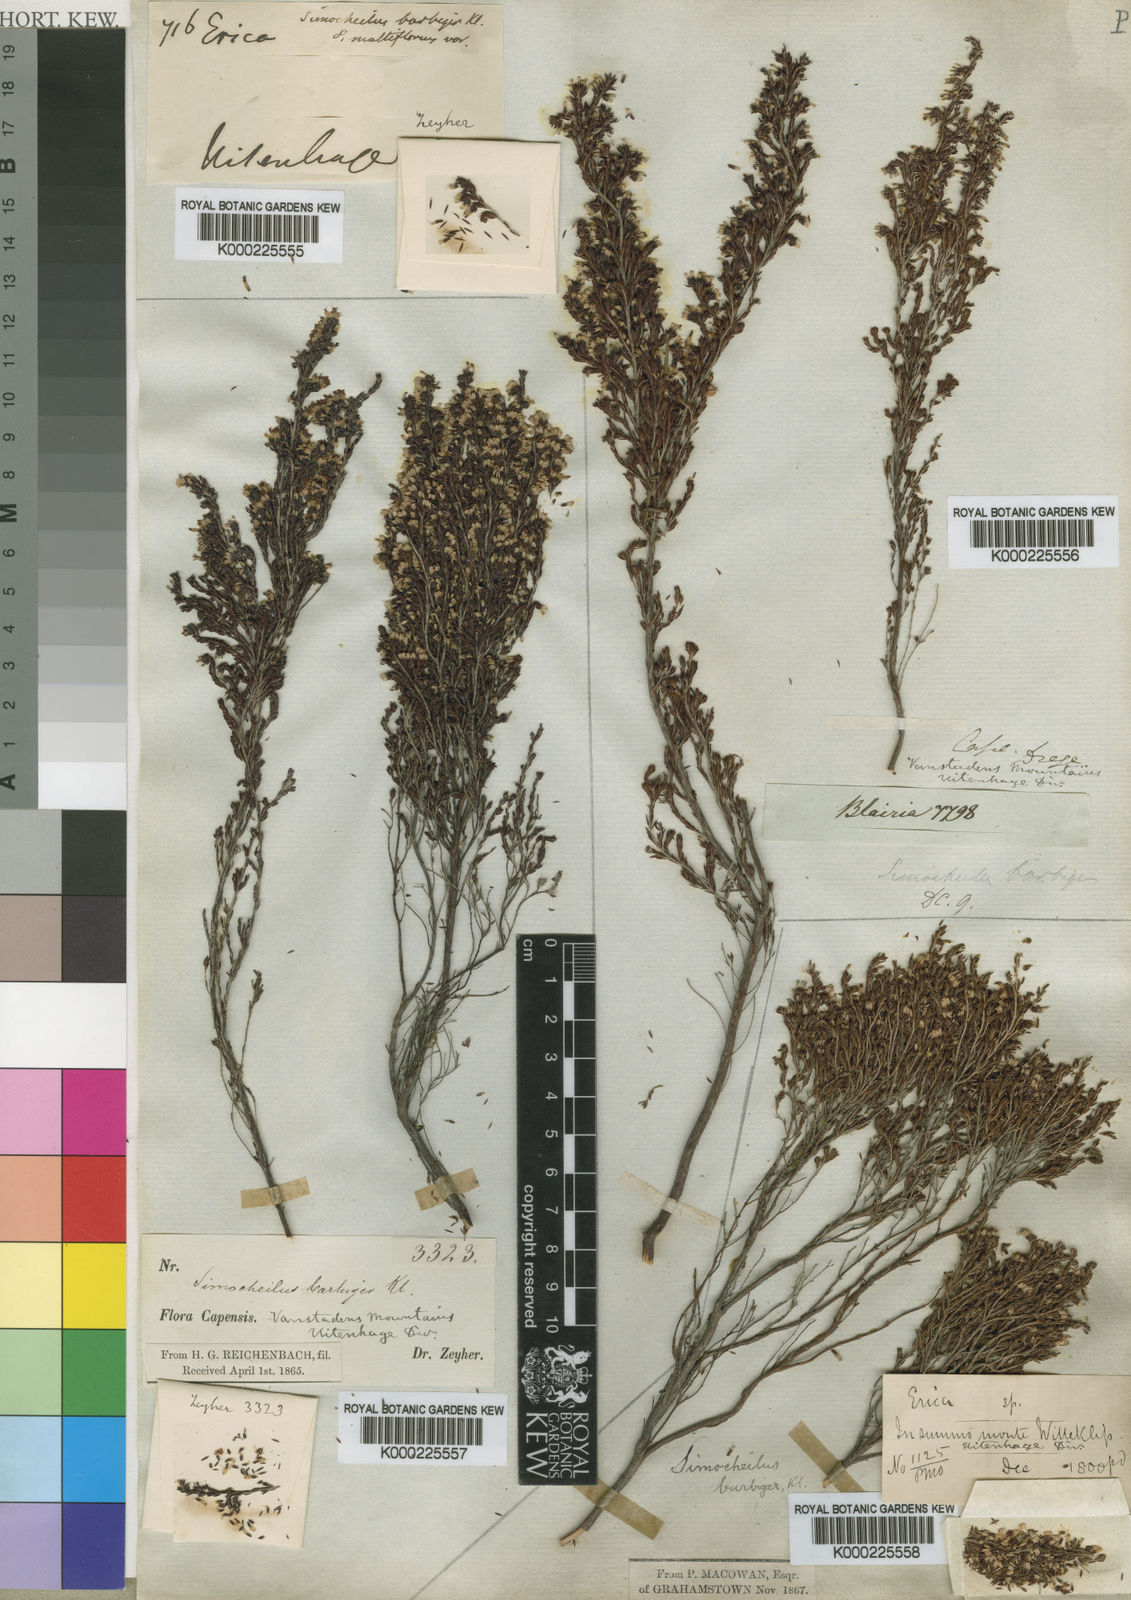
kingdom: Plantae
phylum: Tracheophyta
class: Magnoliopsida
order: Ericales
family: Ericaceae
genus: Erica
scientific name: Erica uberiflora
